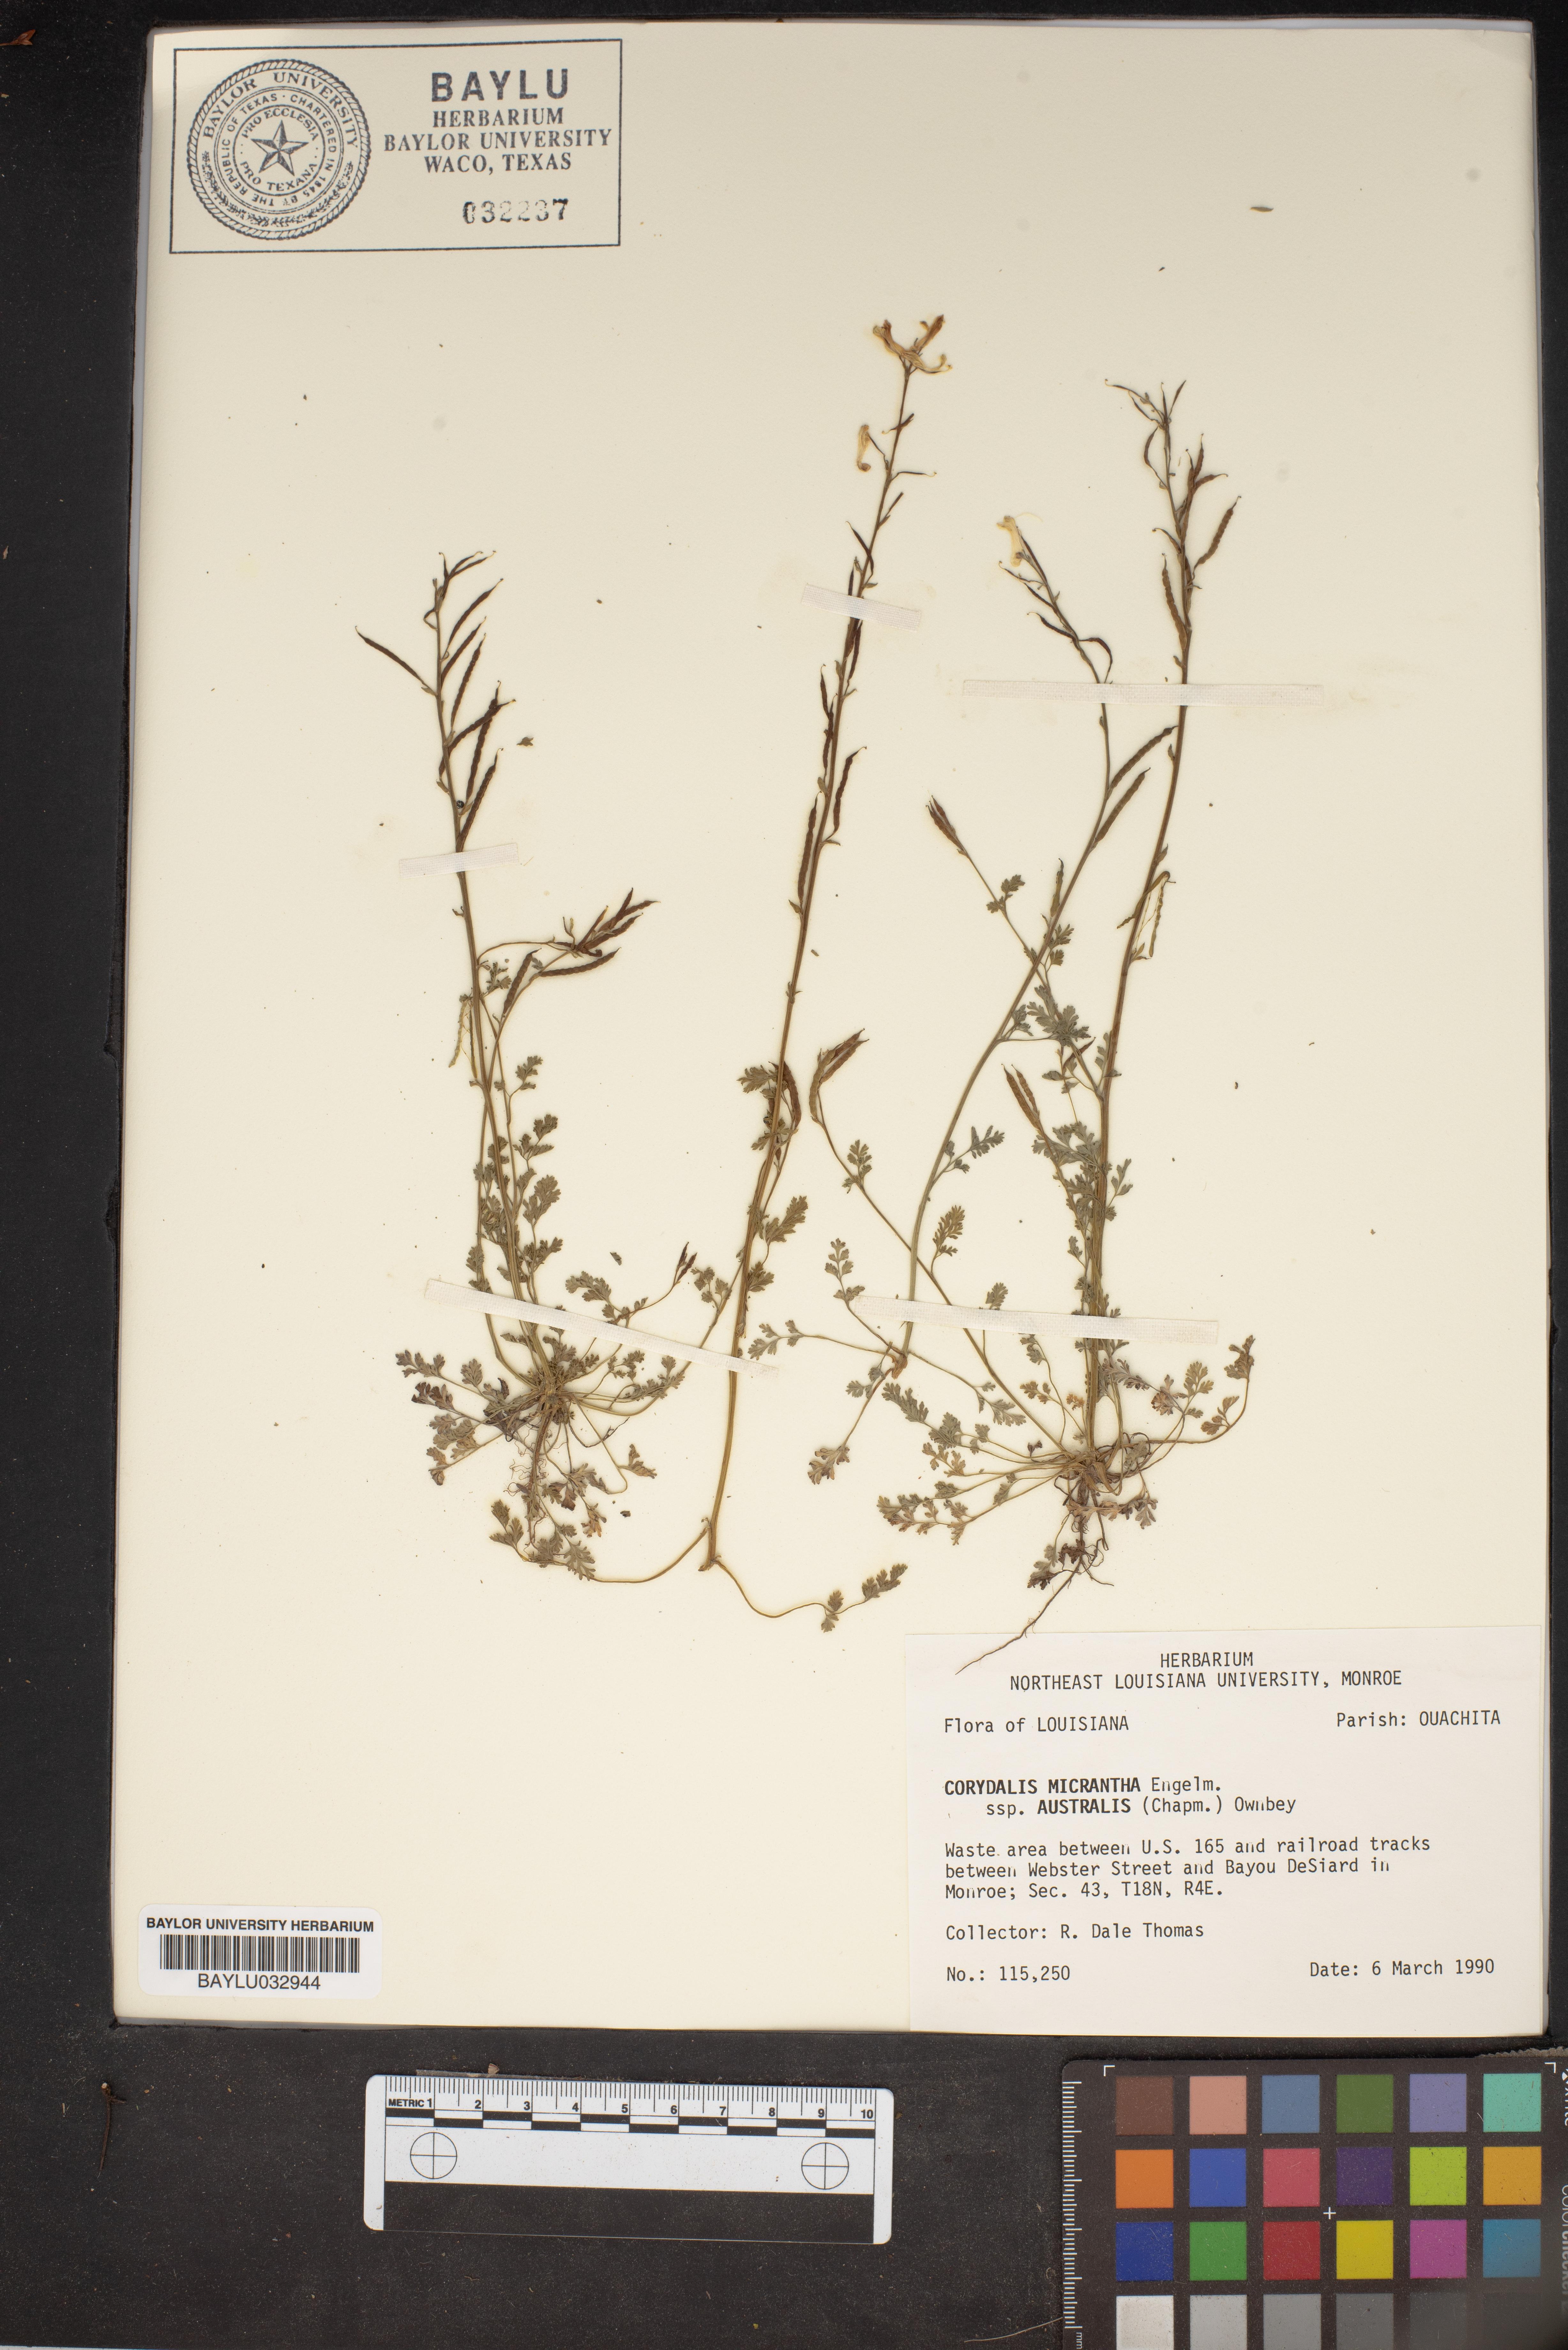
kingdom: Plantae
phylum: Tracheophyta
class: Magnoliopsida
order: Ranunculales
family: Papaveraceae
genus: Corydalis
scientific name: Corydalis micrantha
